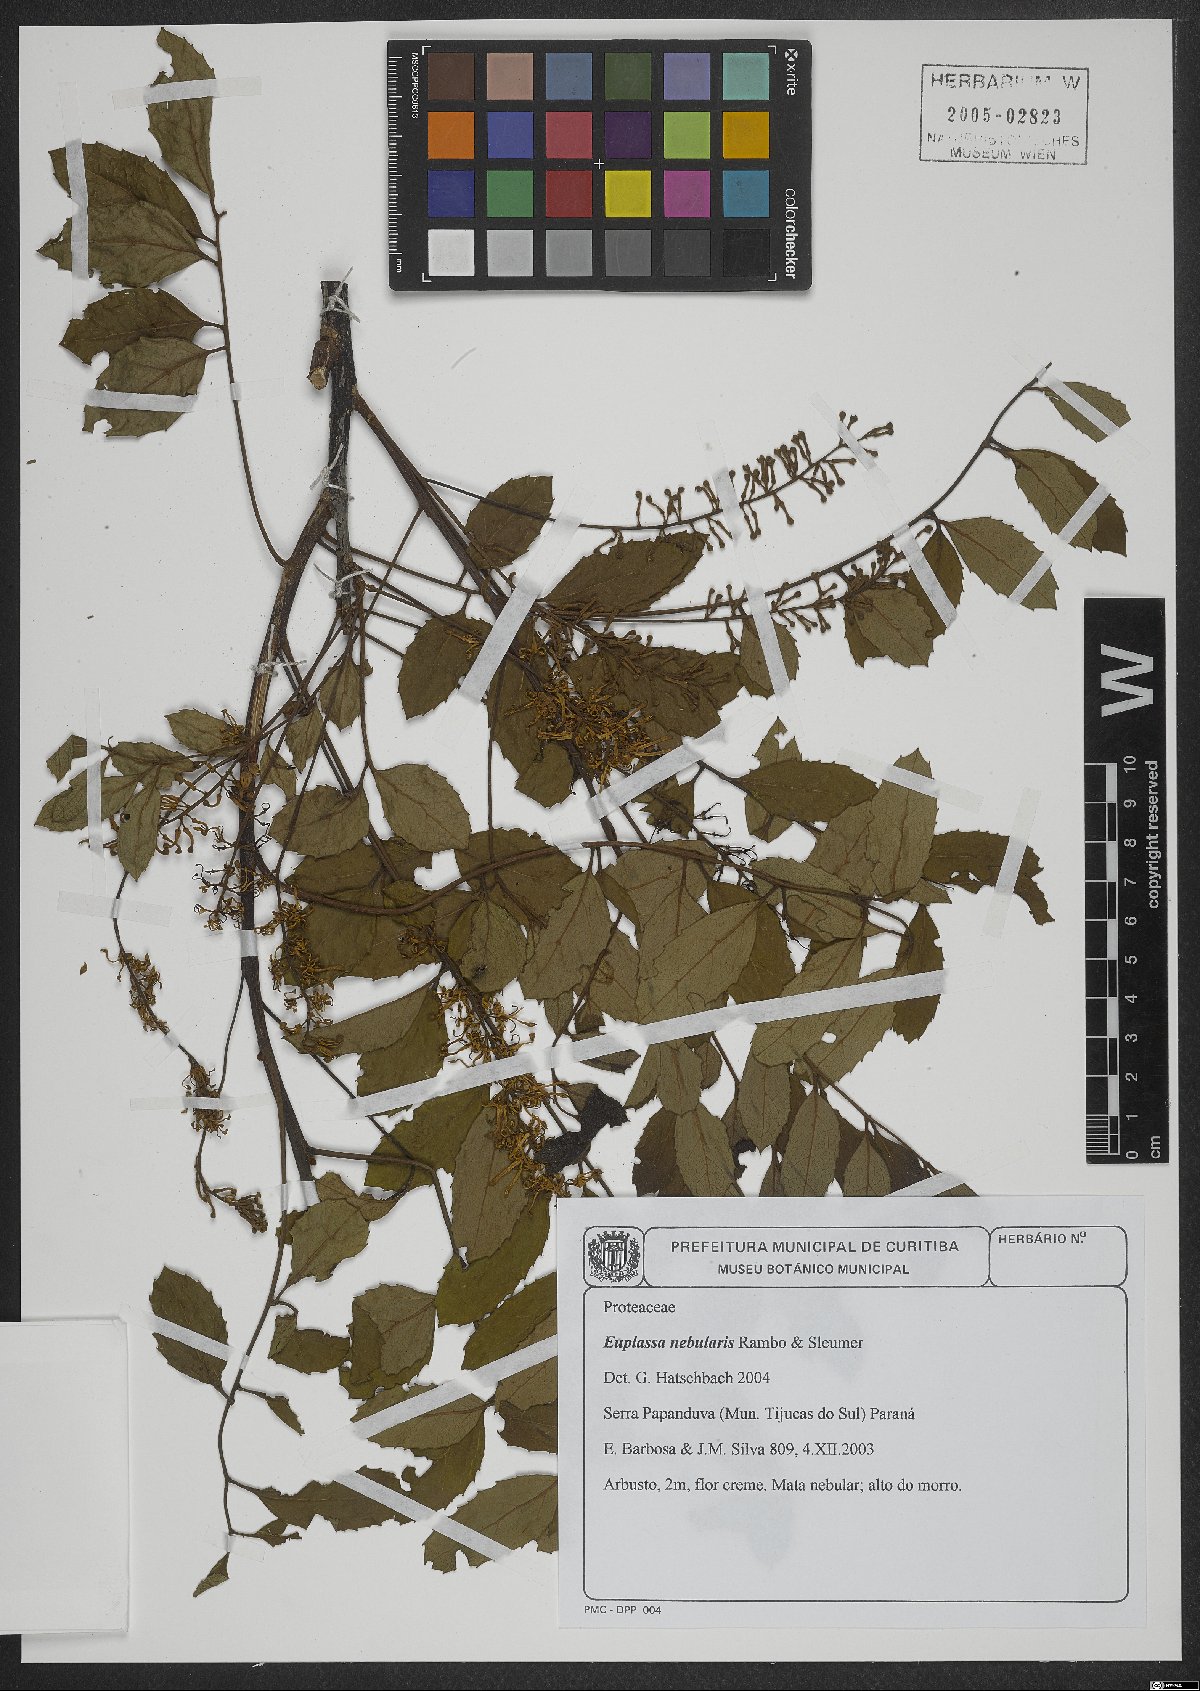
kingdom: Plantae
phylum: Tracheophyta
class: Magnoliopsida
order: Proteales
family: Proteaceae
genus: Euplassa
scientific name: Euplassa nebularis
